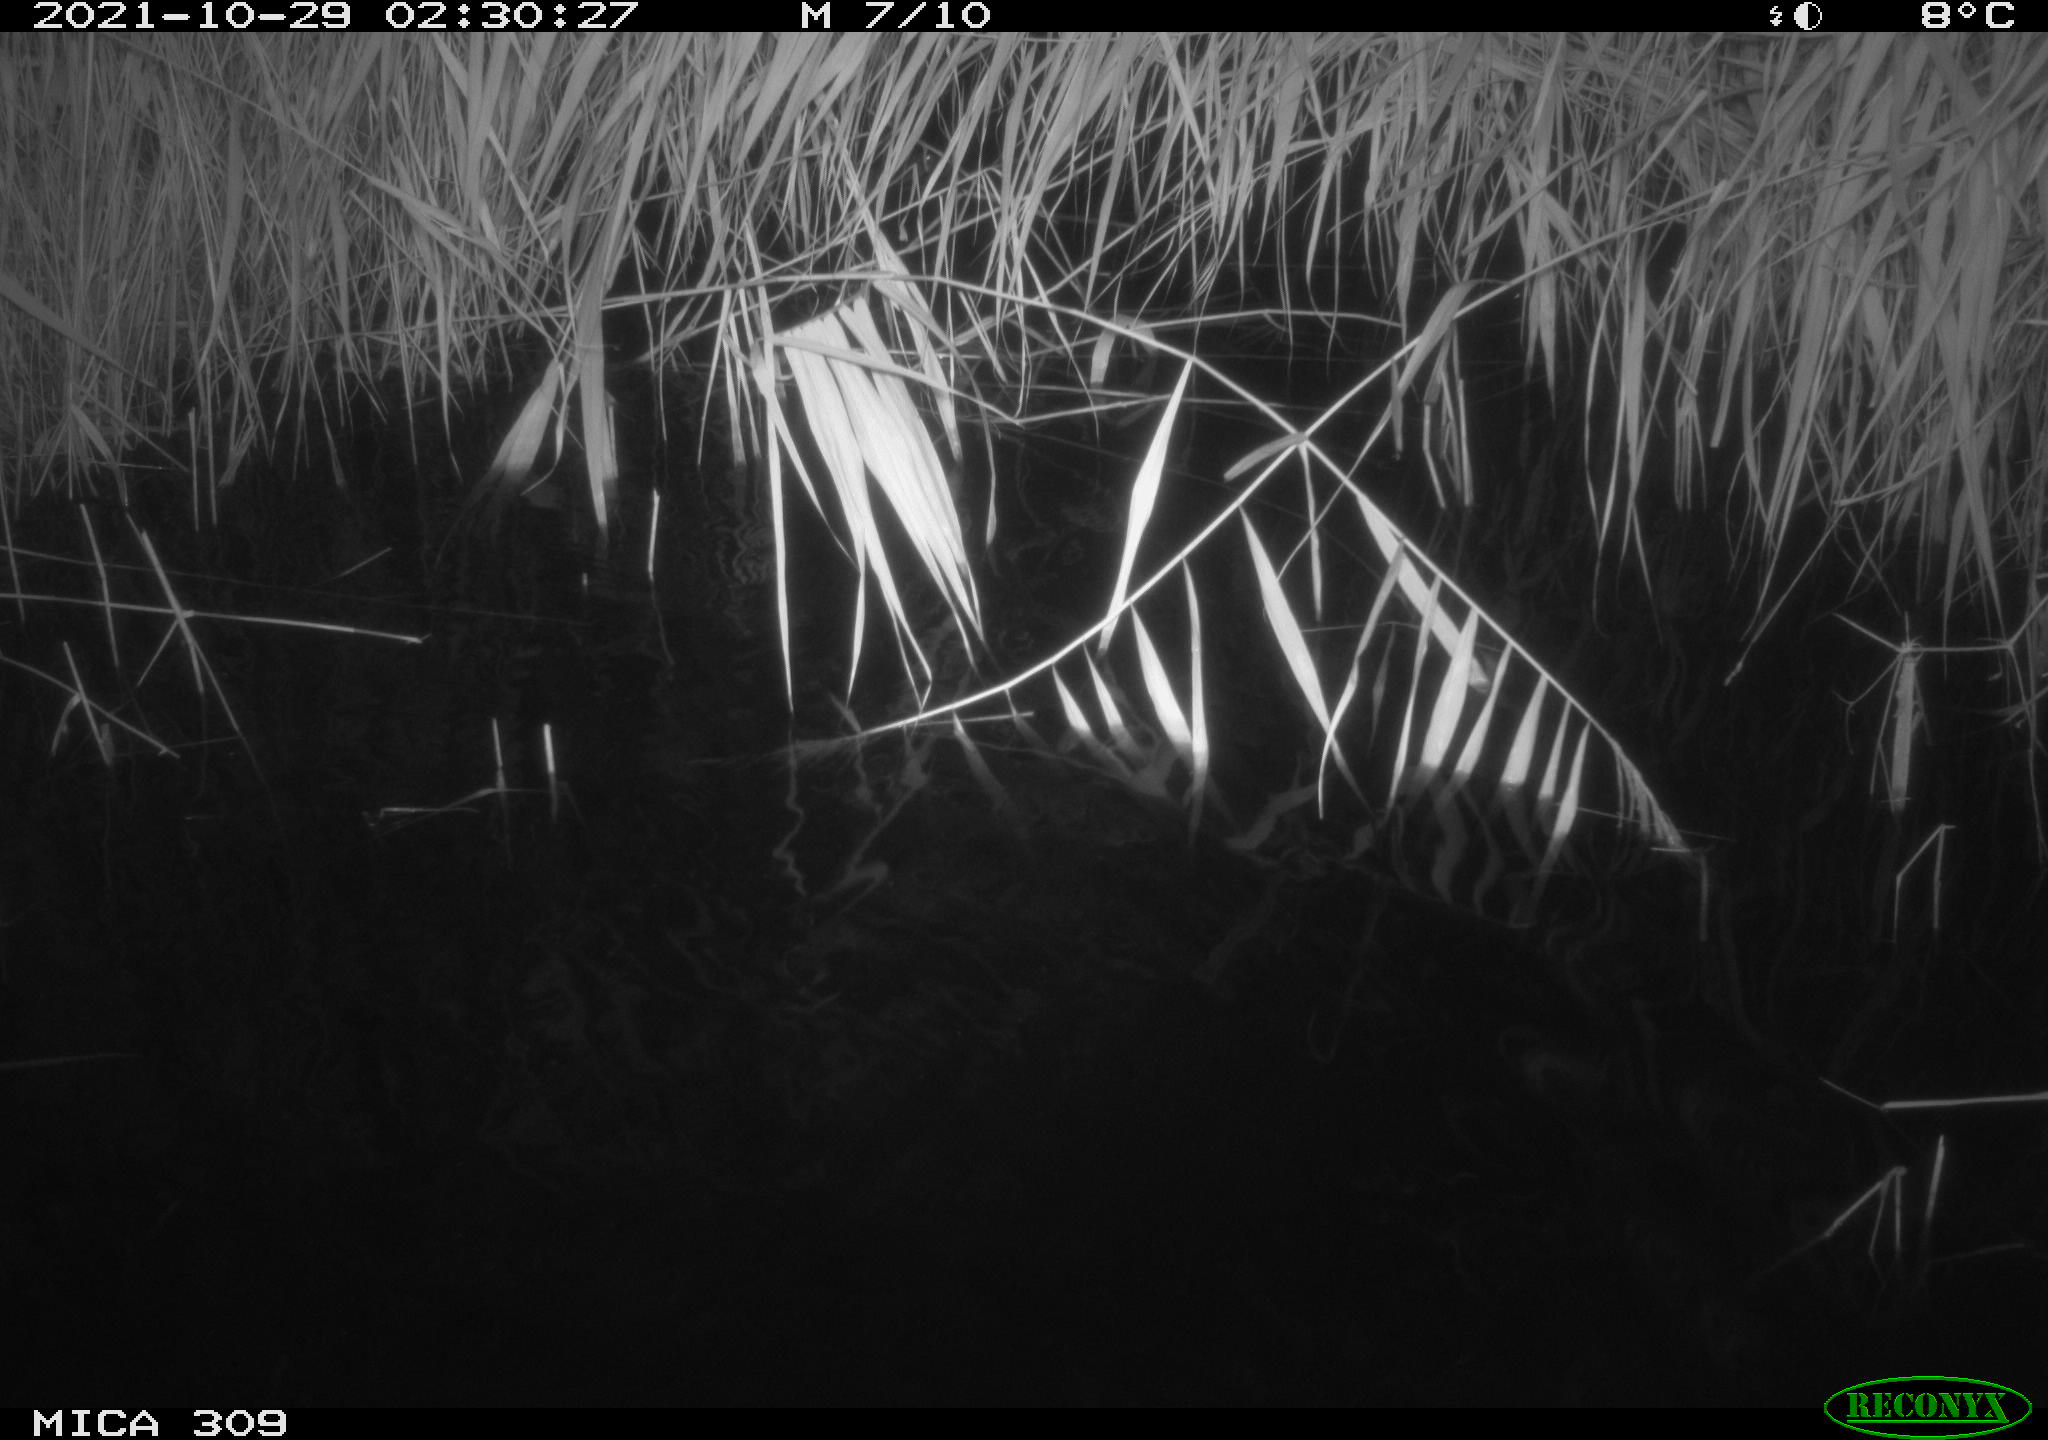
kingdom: Animalia
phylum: Chordata
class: Mammalia
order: Rodentia
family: Muridae
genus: Rattus
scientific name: Rattus norvegicus
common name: Brown rat
